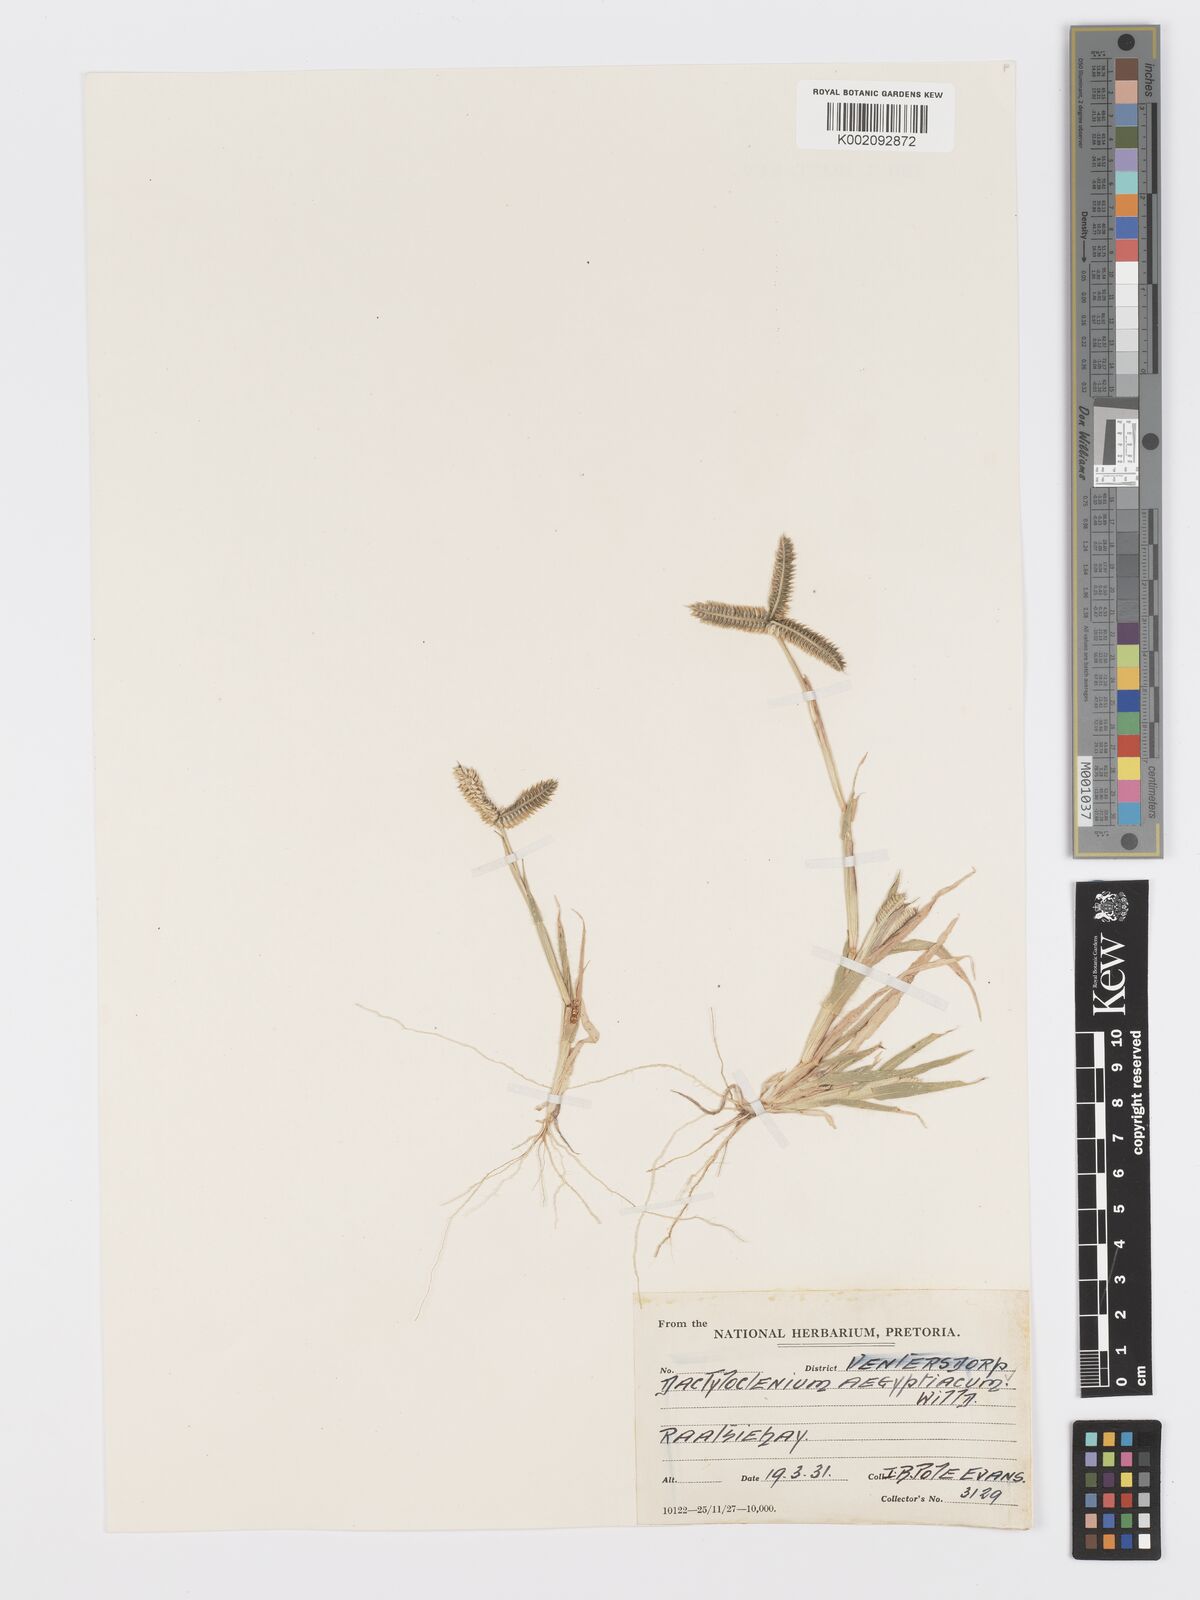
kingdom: Plantae
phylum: Tracheophyta
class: Liliopsida
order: Poales
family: Poaceae
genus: Dactyloctenium
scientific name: Dactyloctenium aegyptium
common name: Egyptian grass
